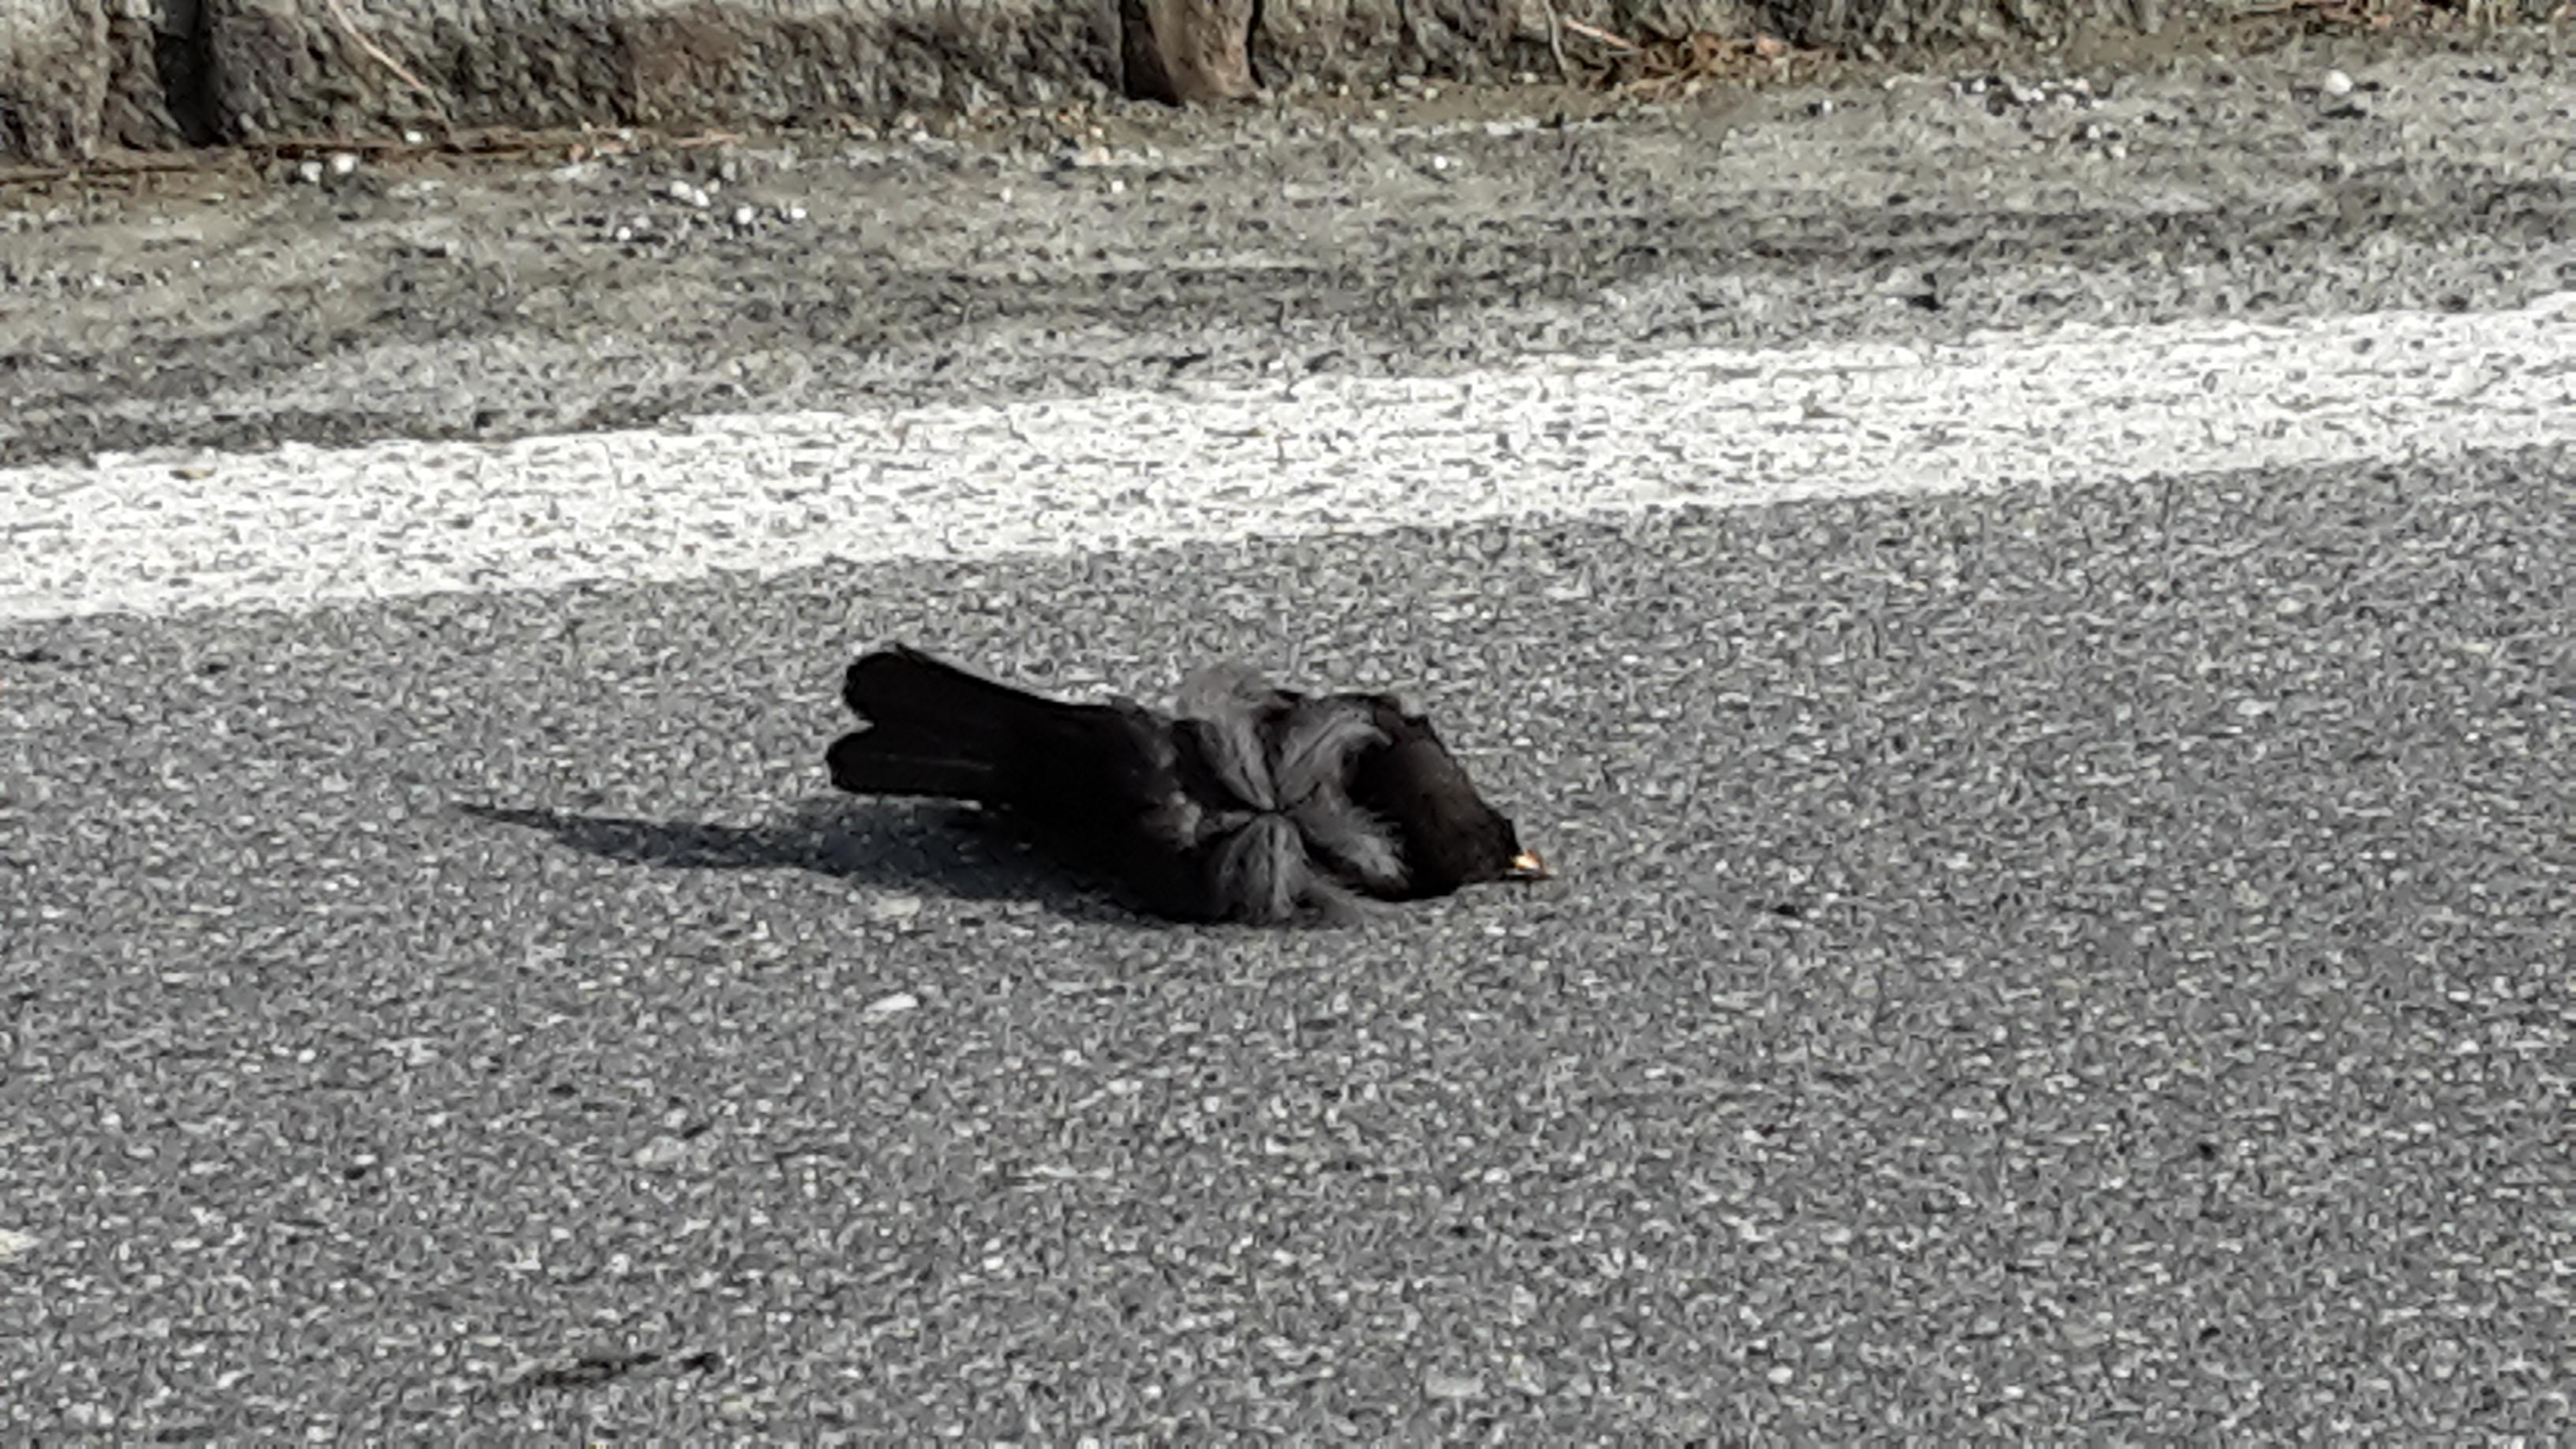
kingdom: Animalia
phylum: Chordata
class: Aves
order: Passeriformes
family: Turdidae
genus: Turdus
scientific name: Turdus merula
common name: Common blackbird
